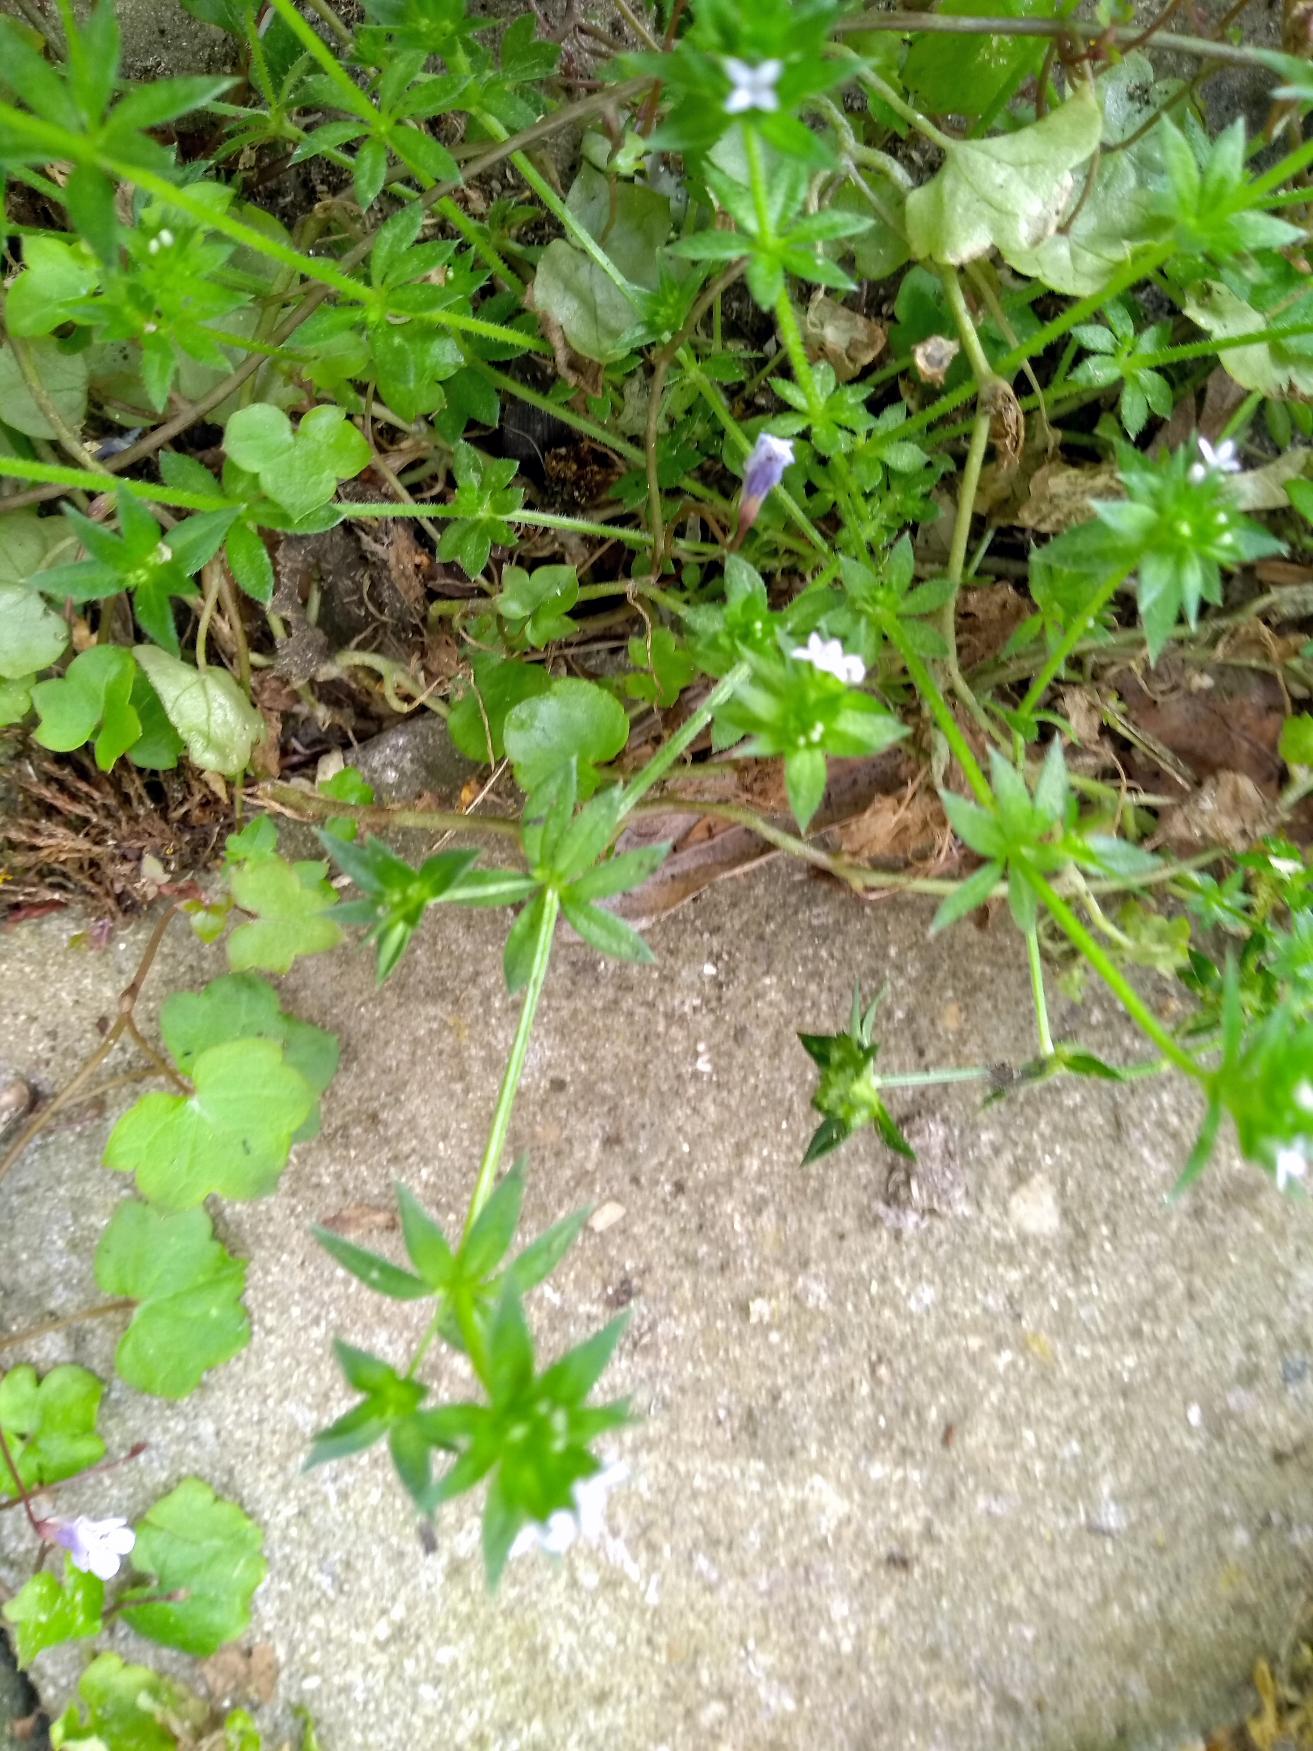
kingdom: Plantae
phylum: Tracheophyta
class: Magnoliopsida
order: Gentianales
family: Rubiaceae
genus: Sherardia
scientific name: Sherardia arvensis
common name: Blåstjerne
